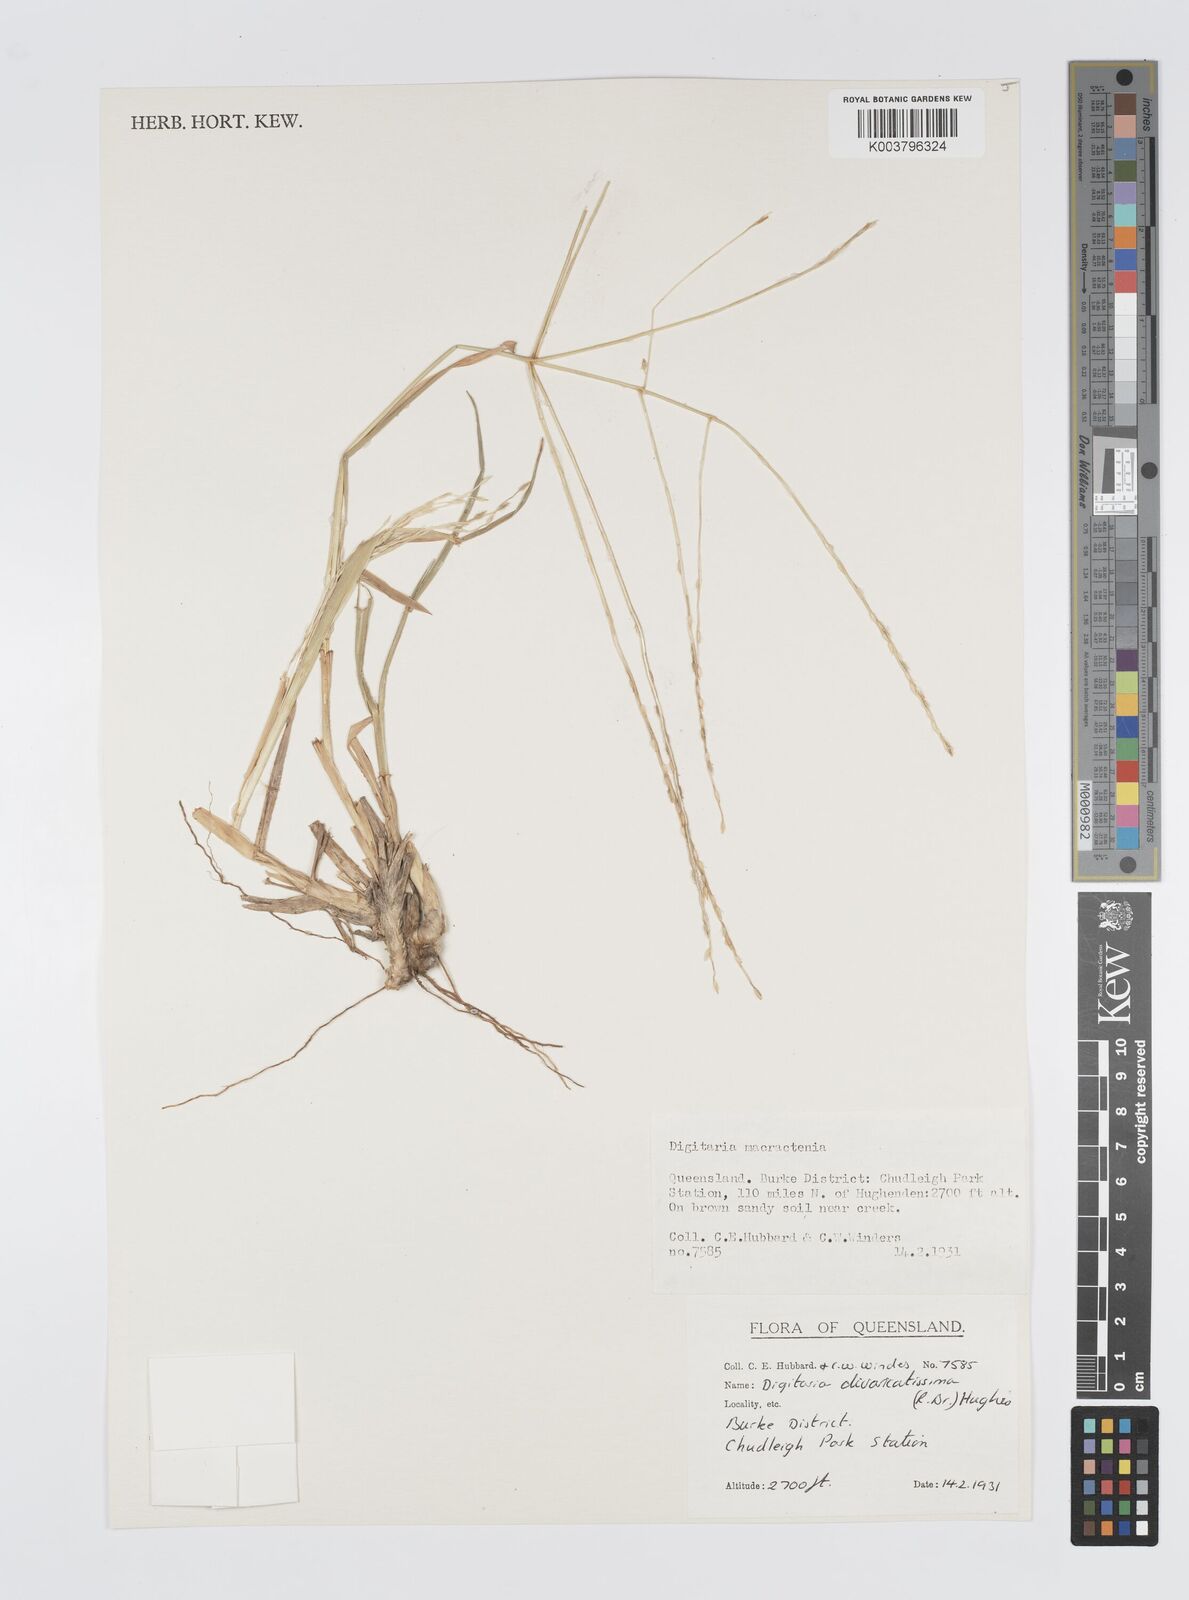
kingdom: Plantae
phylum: Tracheophyta
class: Liliopsida
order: Poales
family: Poaceae
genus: Digitaria
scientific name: Digitaria divaricatissima
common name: Crabgrass
